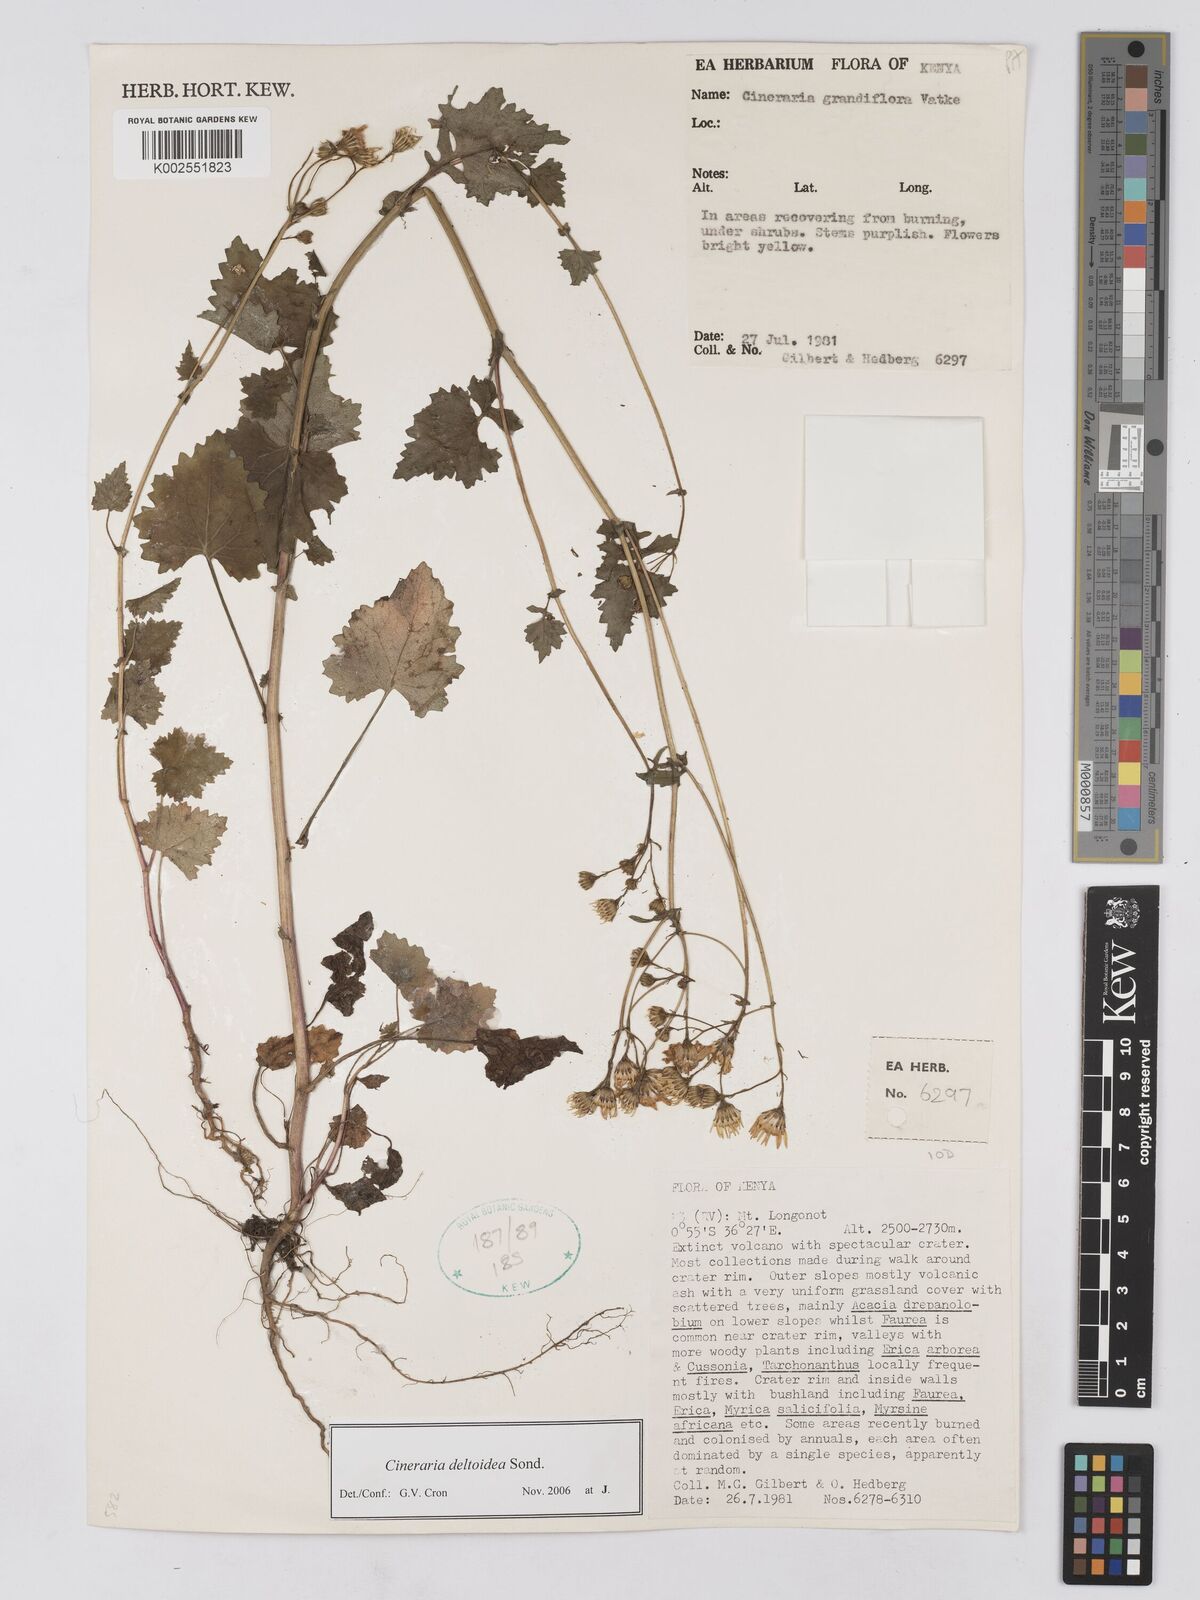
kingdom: Plantae
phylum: Tracheophyta
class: Magnoliopsida
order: Asterales
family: Asteraceae
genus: Cineraria
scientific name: Cineraria deltoidea
